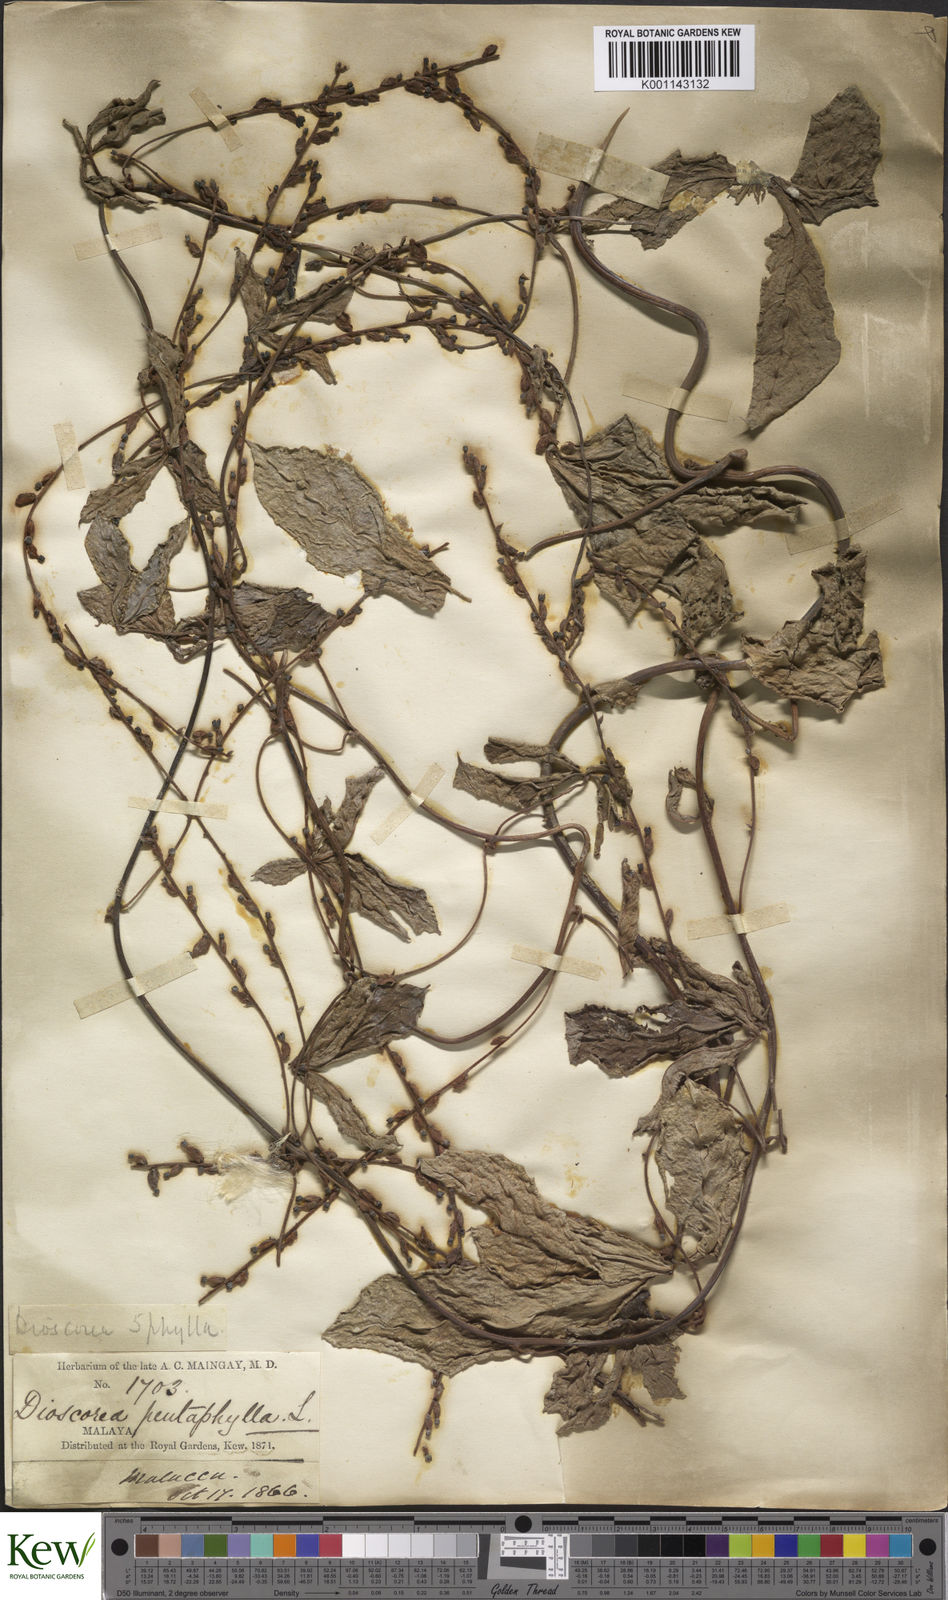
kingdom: Plantae
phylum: Tracheophyta
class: Liliopsida
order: Dioscoreales
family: Dioscoreaceae
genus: Dioscorea
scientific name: Dioscorea pentaphylla
